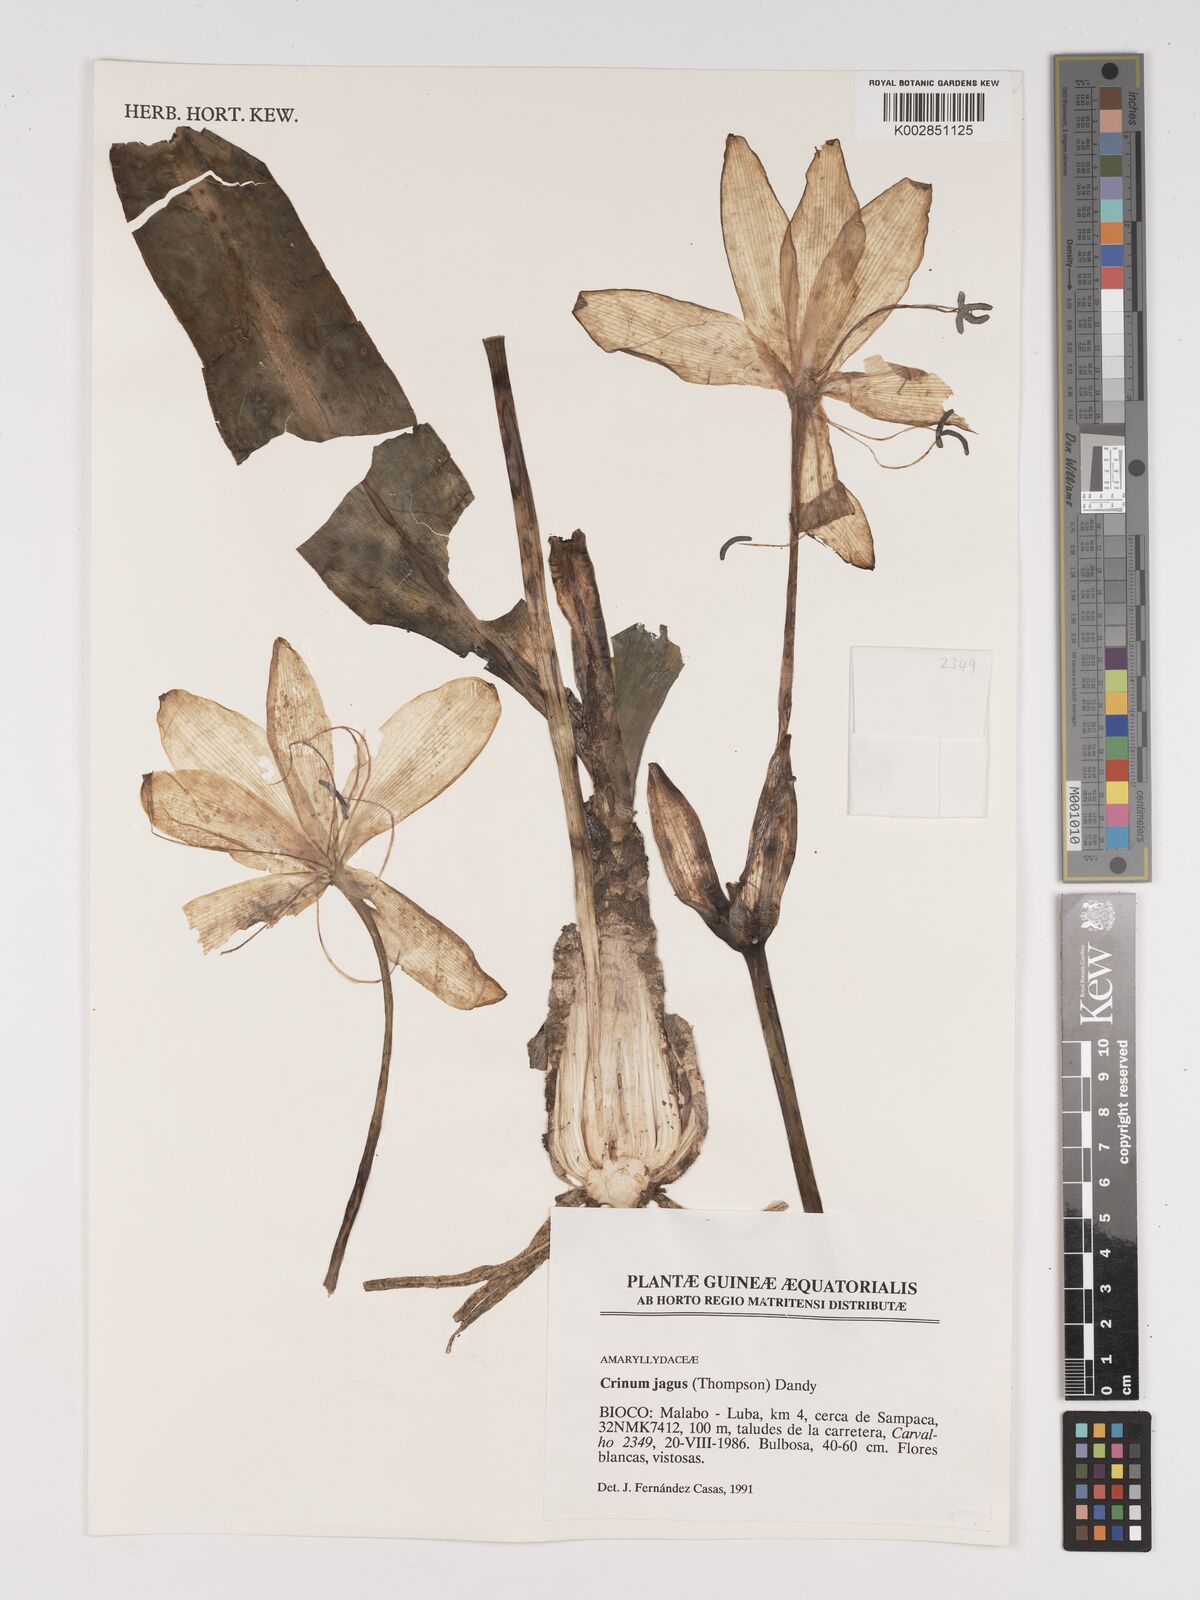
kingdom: Plantae
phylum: Tracheophyta
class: Liliopsida
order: Asparagales
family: Amaryllidaceae
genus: Crinum
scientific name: Crinum jagus
